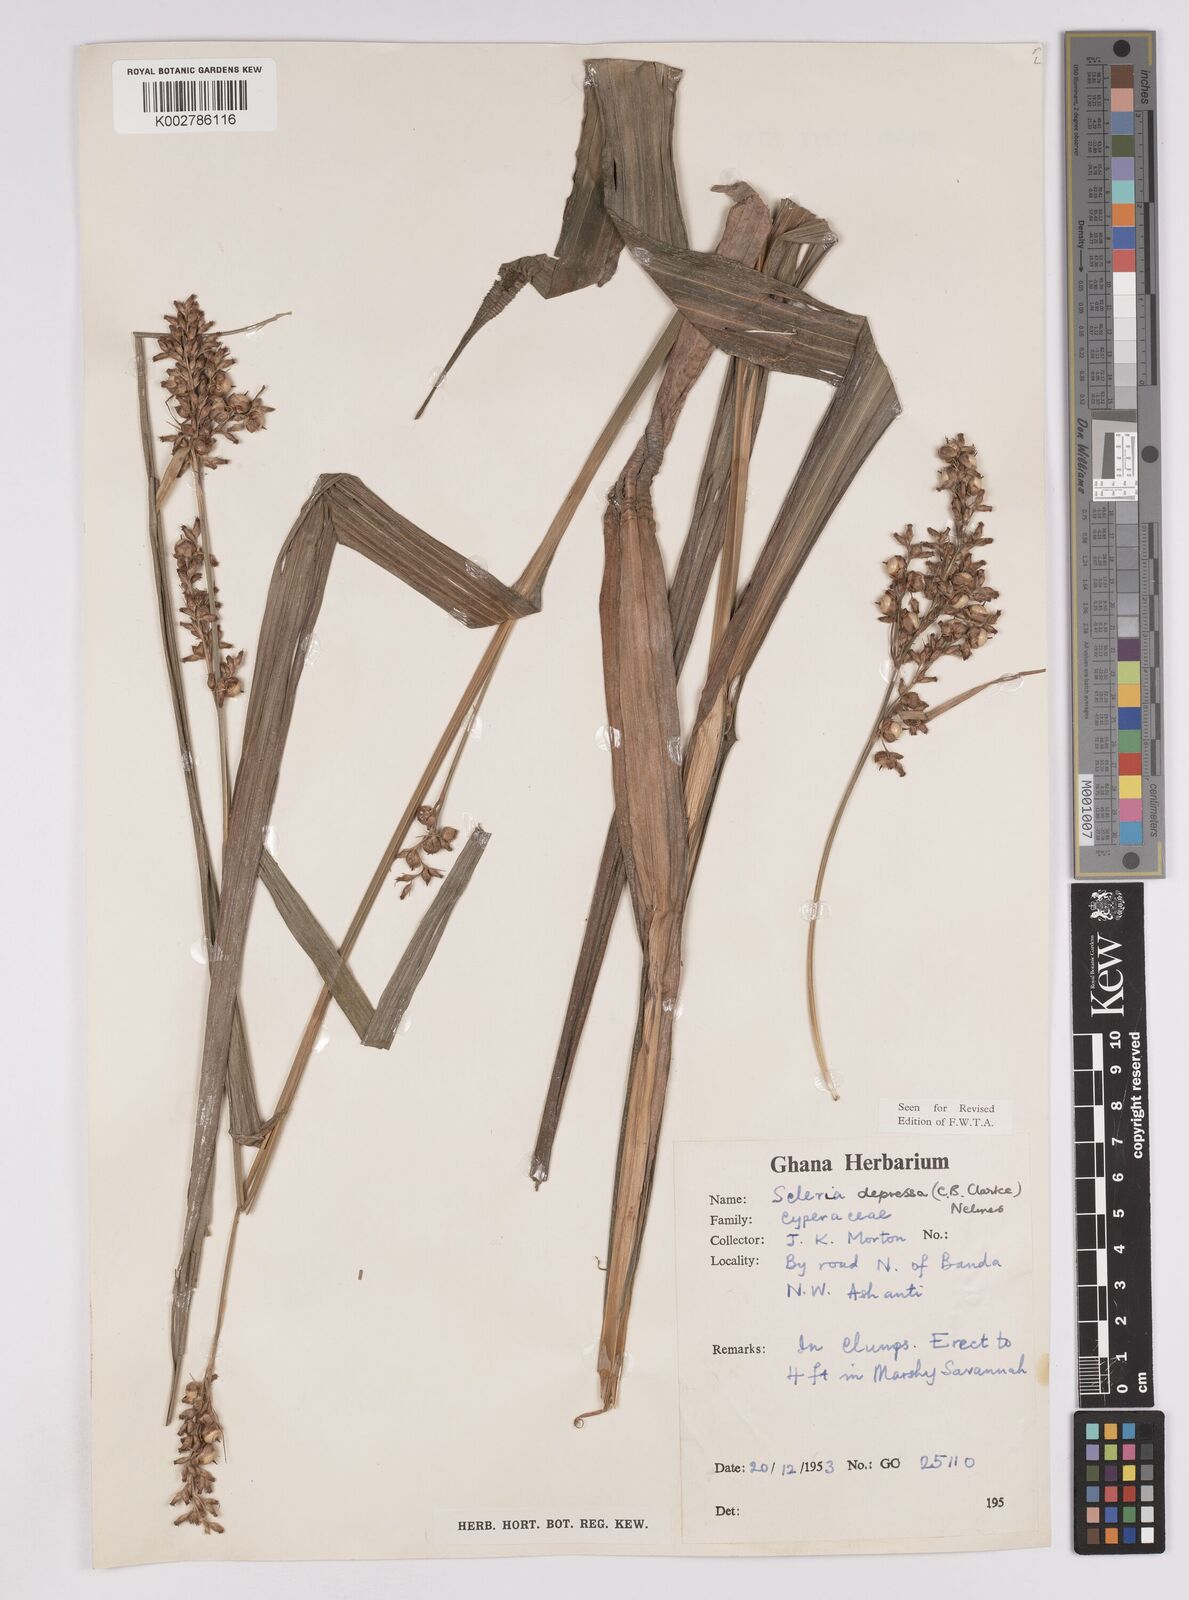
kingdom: Plantae
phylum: Tracheophyta
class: Liliopsida
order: Poales
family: Cyperaceae
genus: Scleria
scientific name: Scleria depressa
